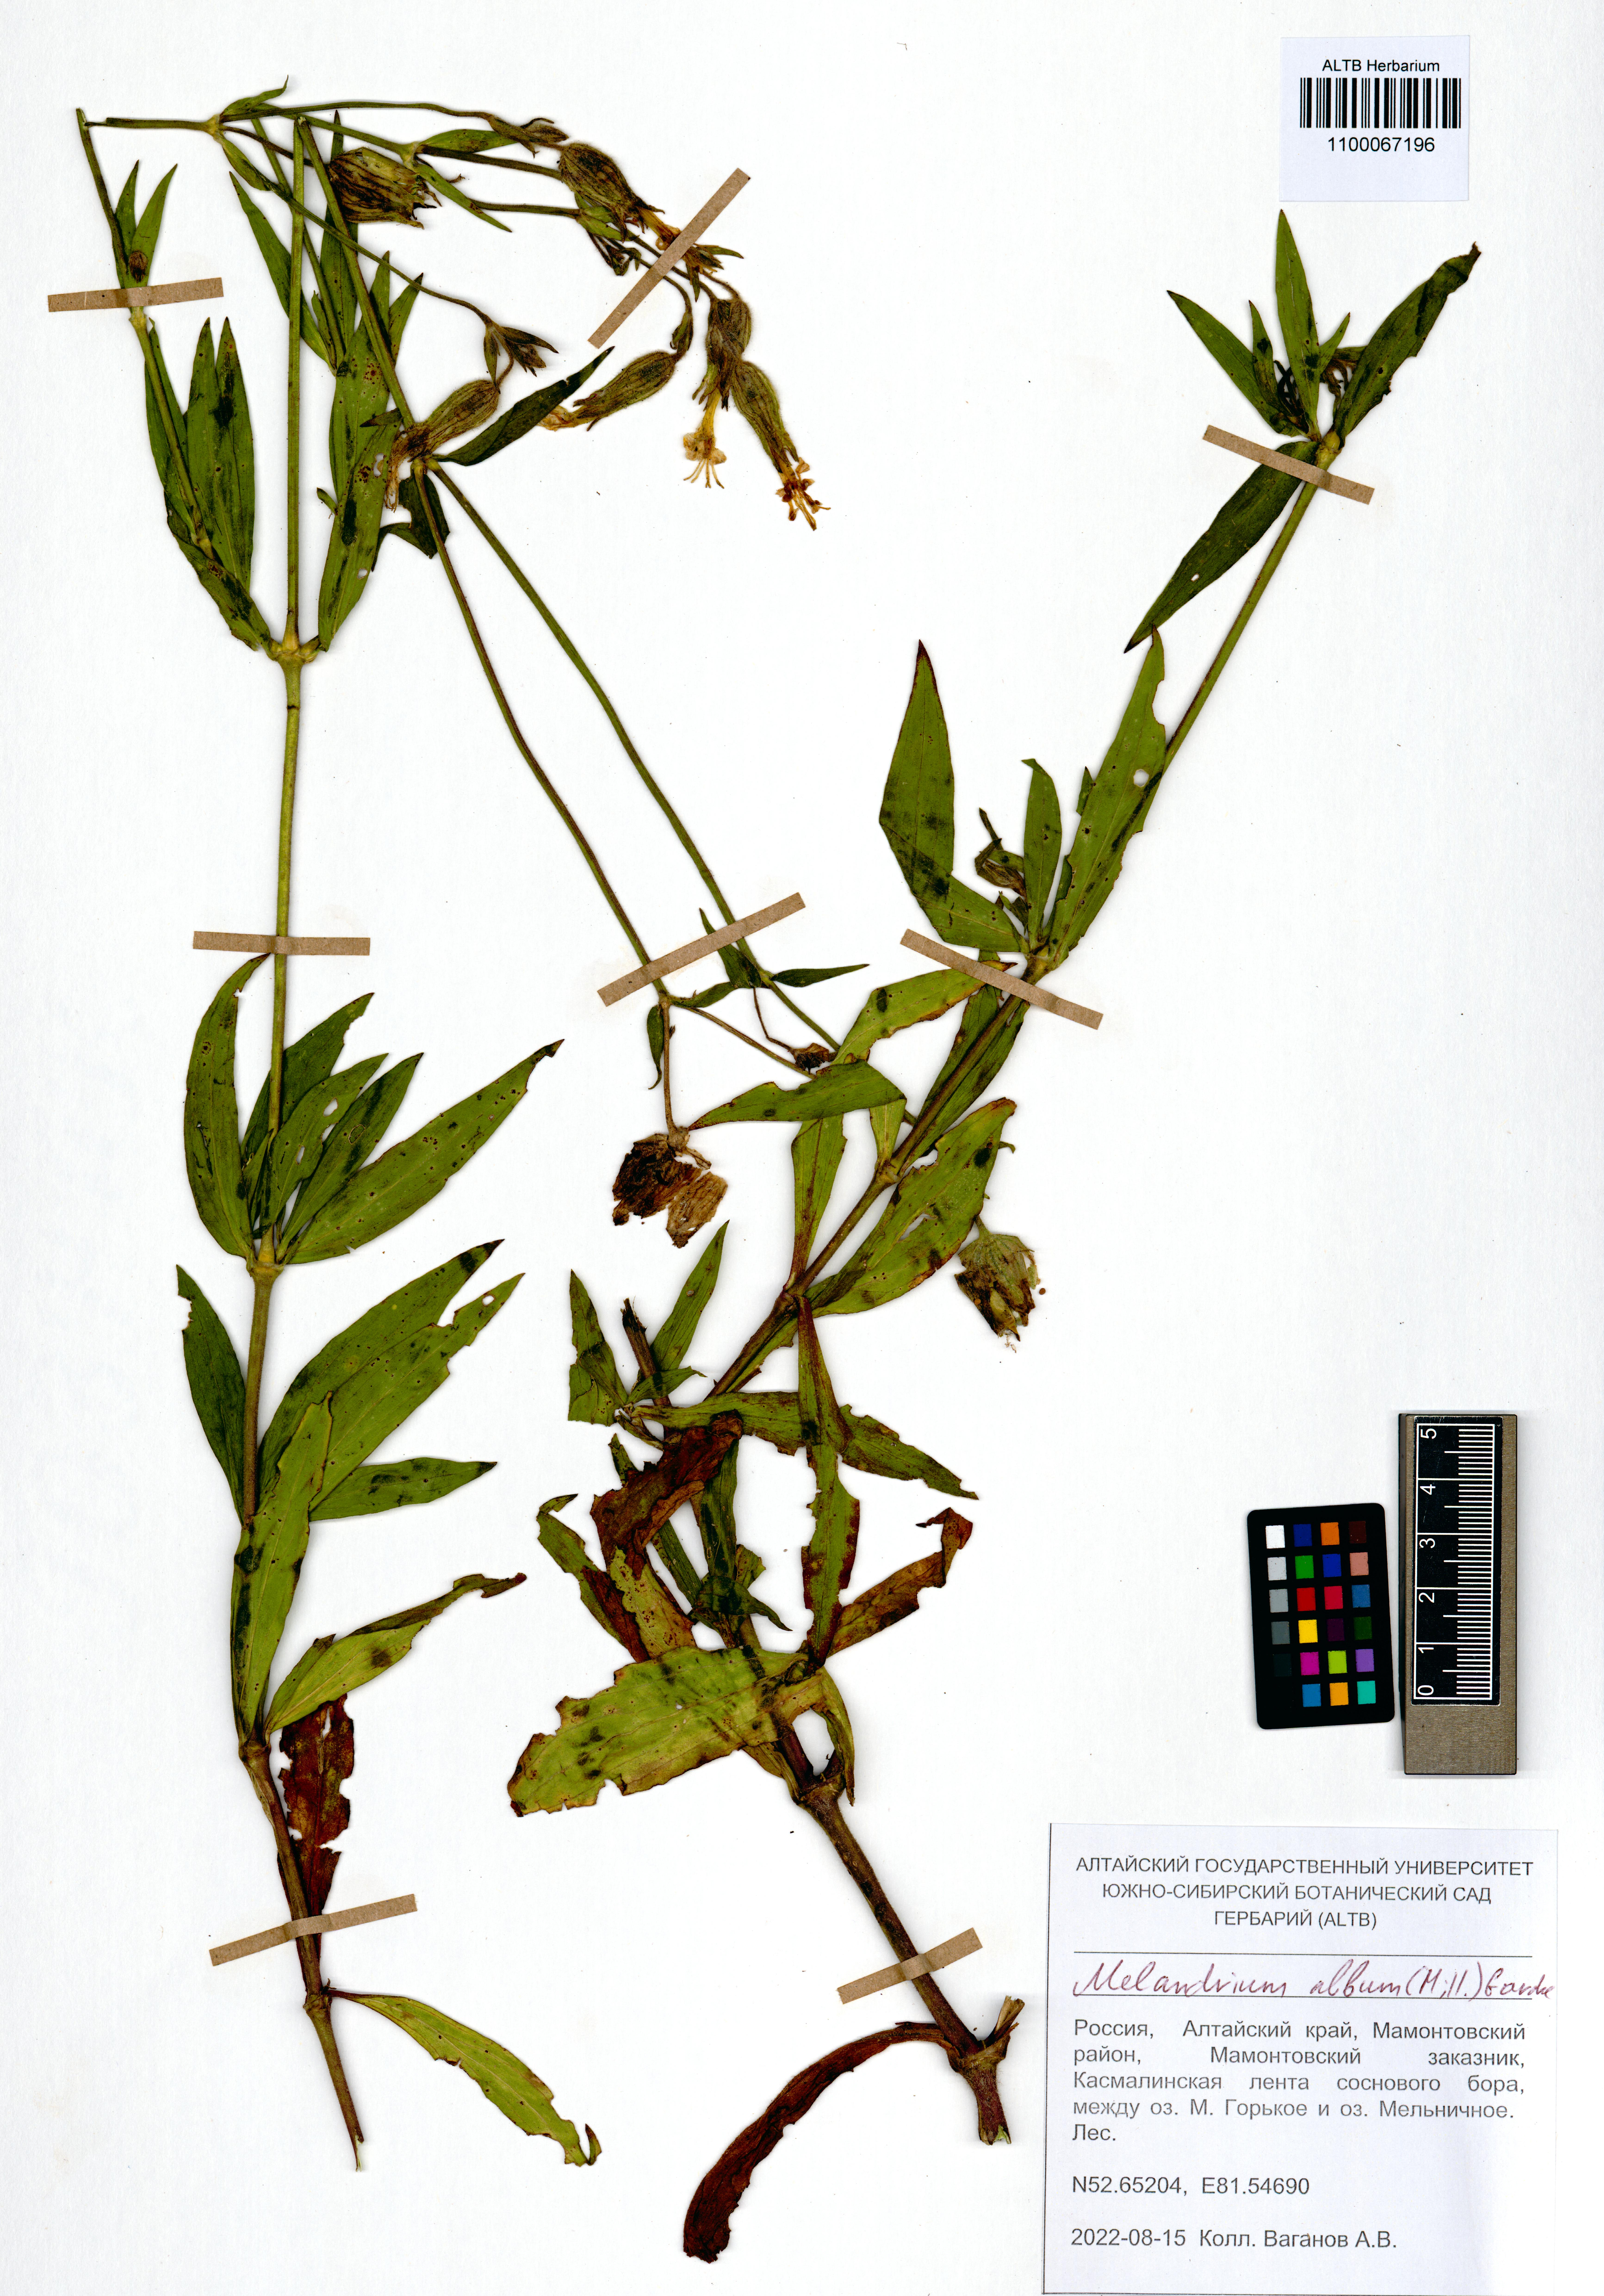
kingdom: Plantae
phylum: Tracheophyta
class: Magnoliopsida
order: Caryophyllales
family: Caryophyllaceae
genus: Silene
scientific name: Silene latifolia
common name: White campion
